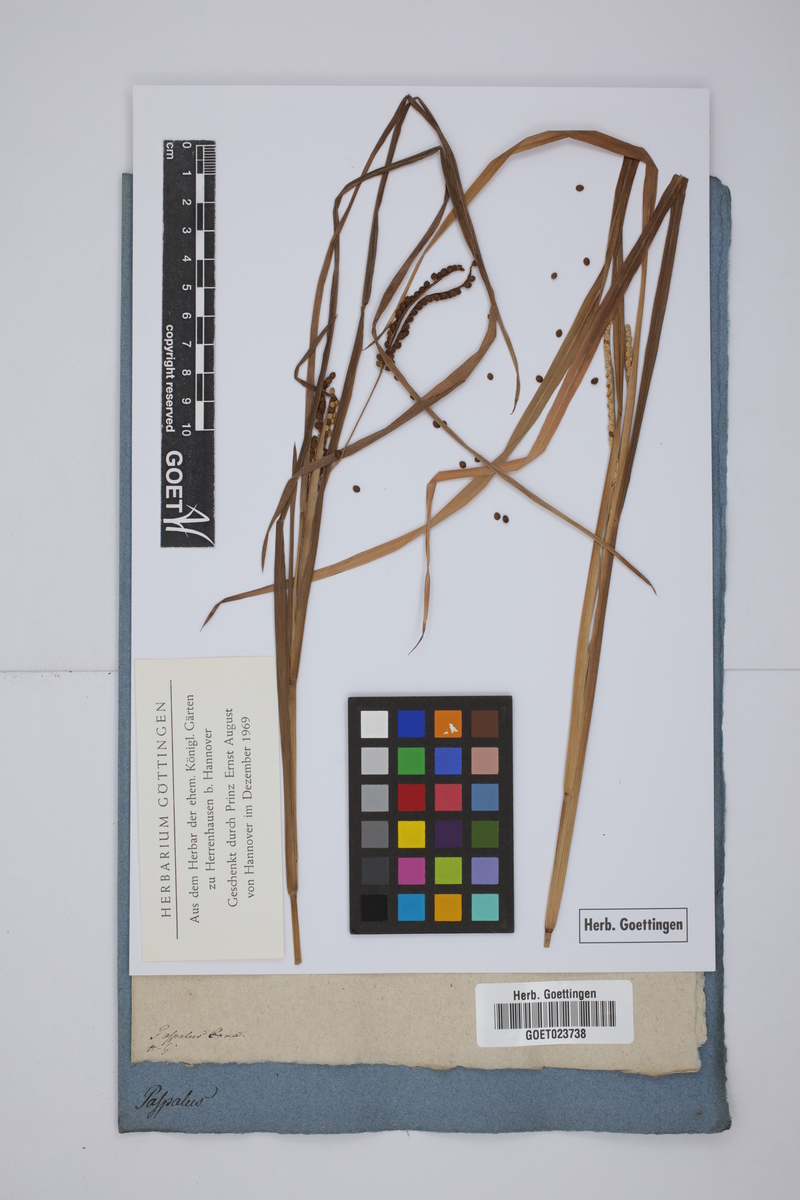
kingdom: Plantae
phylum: Tracheophyta
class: Liliopsida
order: Poales
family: Poaceae
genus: Paspalum
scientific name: Paspalum
